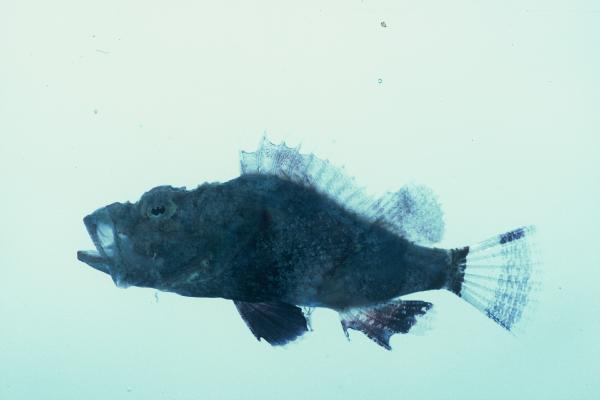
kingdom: Animalia
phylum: Chordata
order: Scorpaeniformes
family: Scorpaenidae
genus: Scorpaenopsis
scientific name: Scorpaenopsis gibbosa
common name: Humpback scorpionfish
